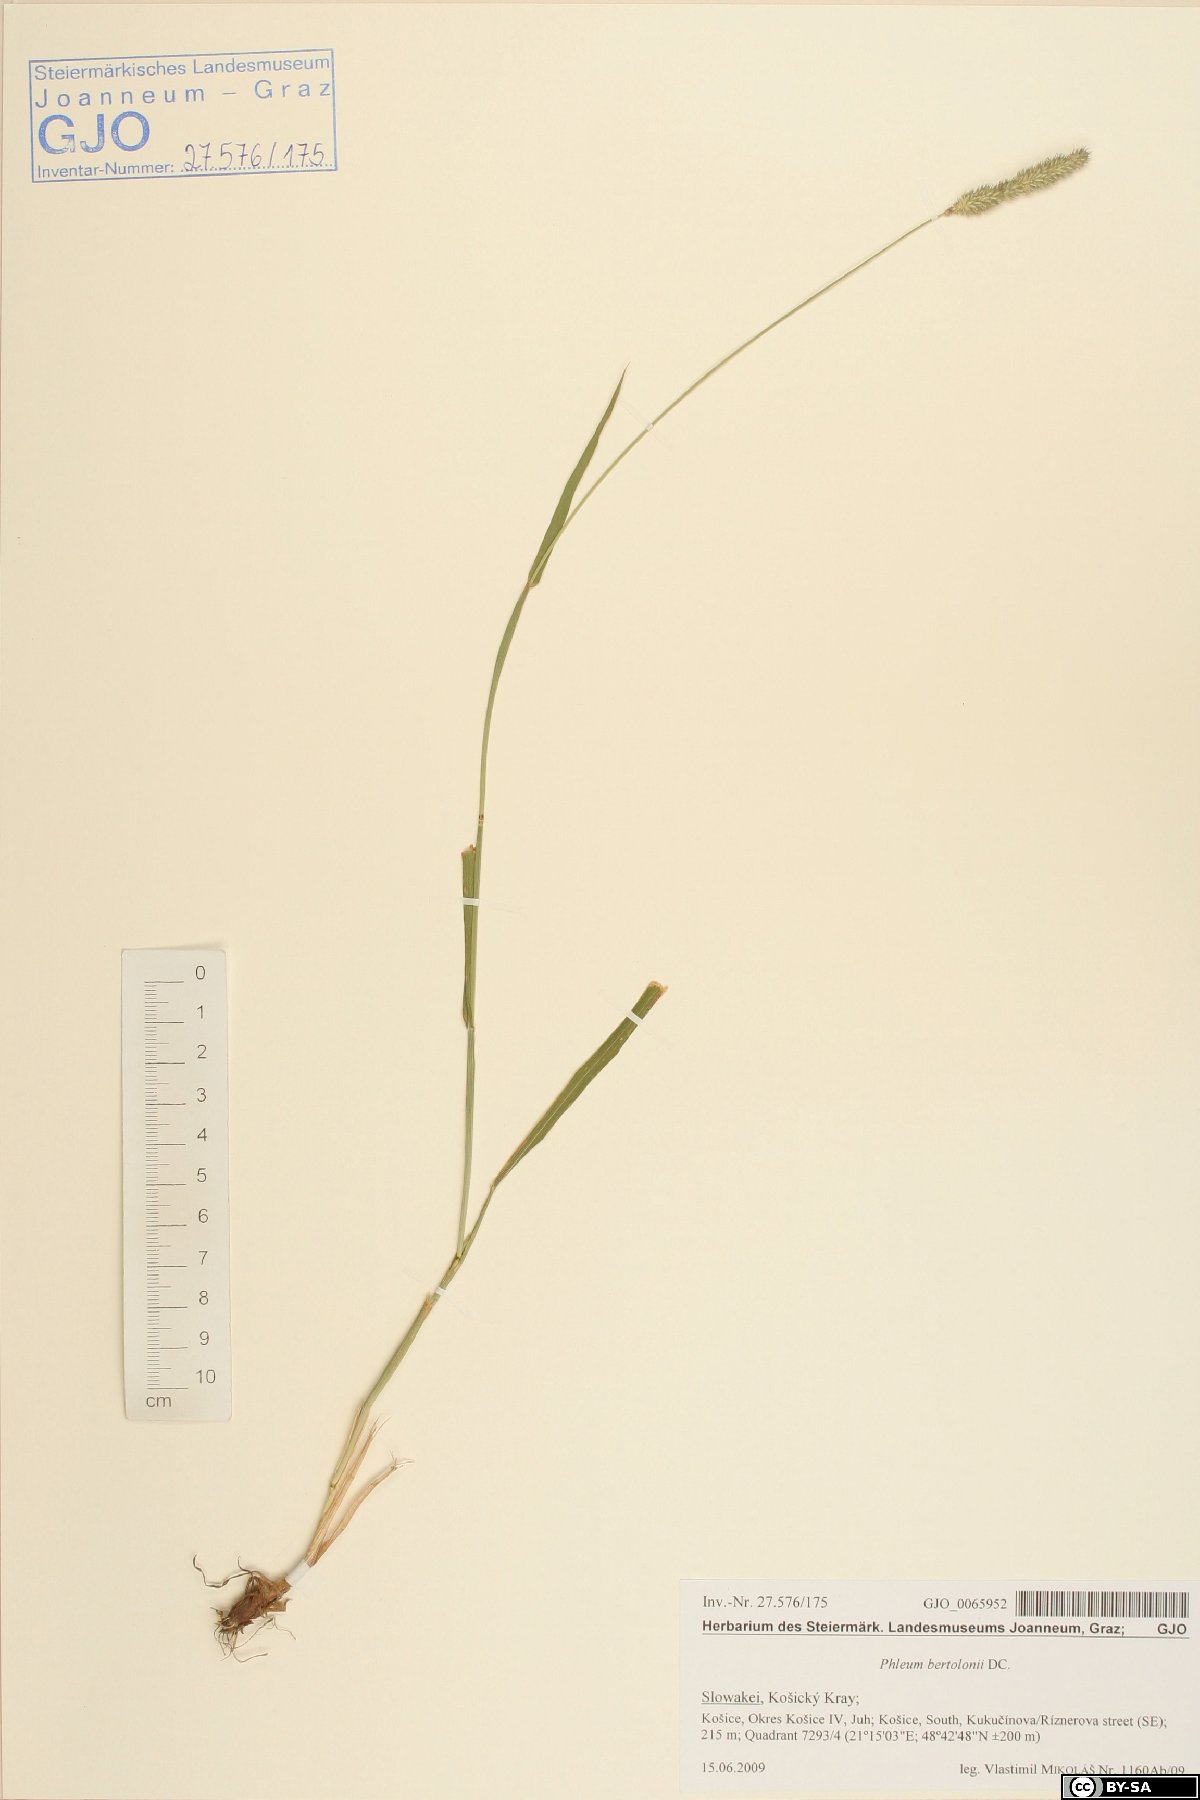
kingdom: Plantae
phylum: Tracheophyta
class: Liliopsida
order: Poales
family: Poaceae
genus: Phleum
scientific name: Phleum bertolonii
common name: Smaller cat's-tail
